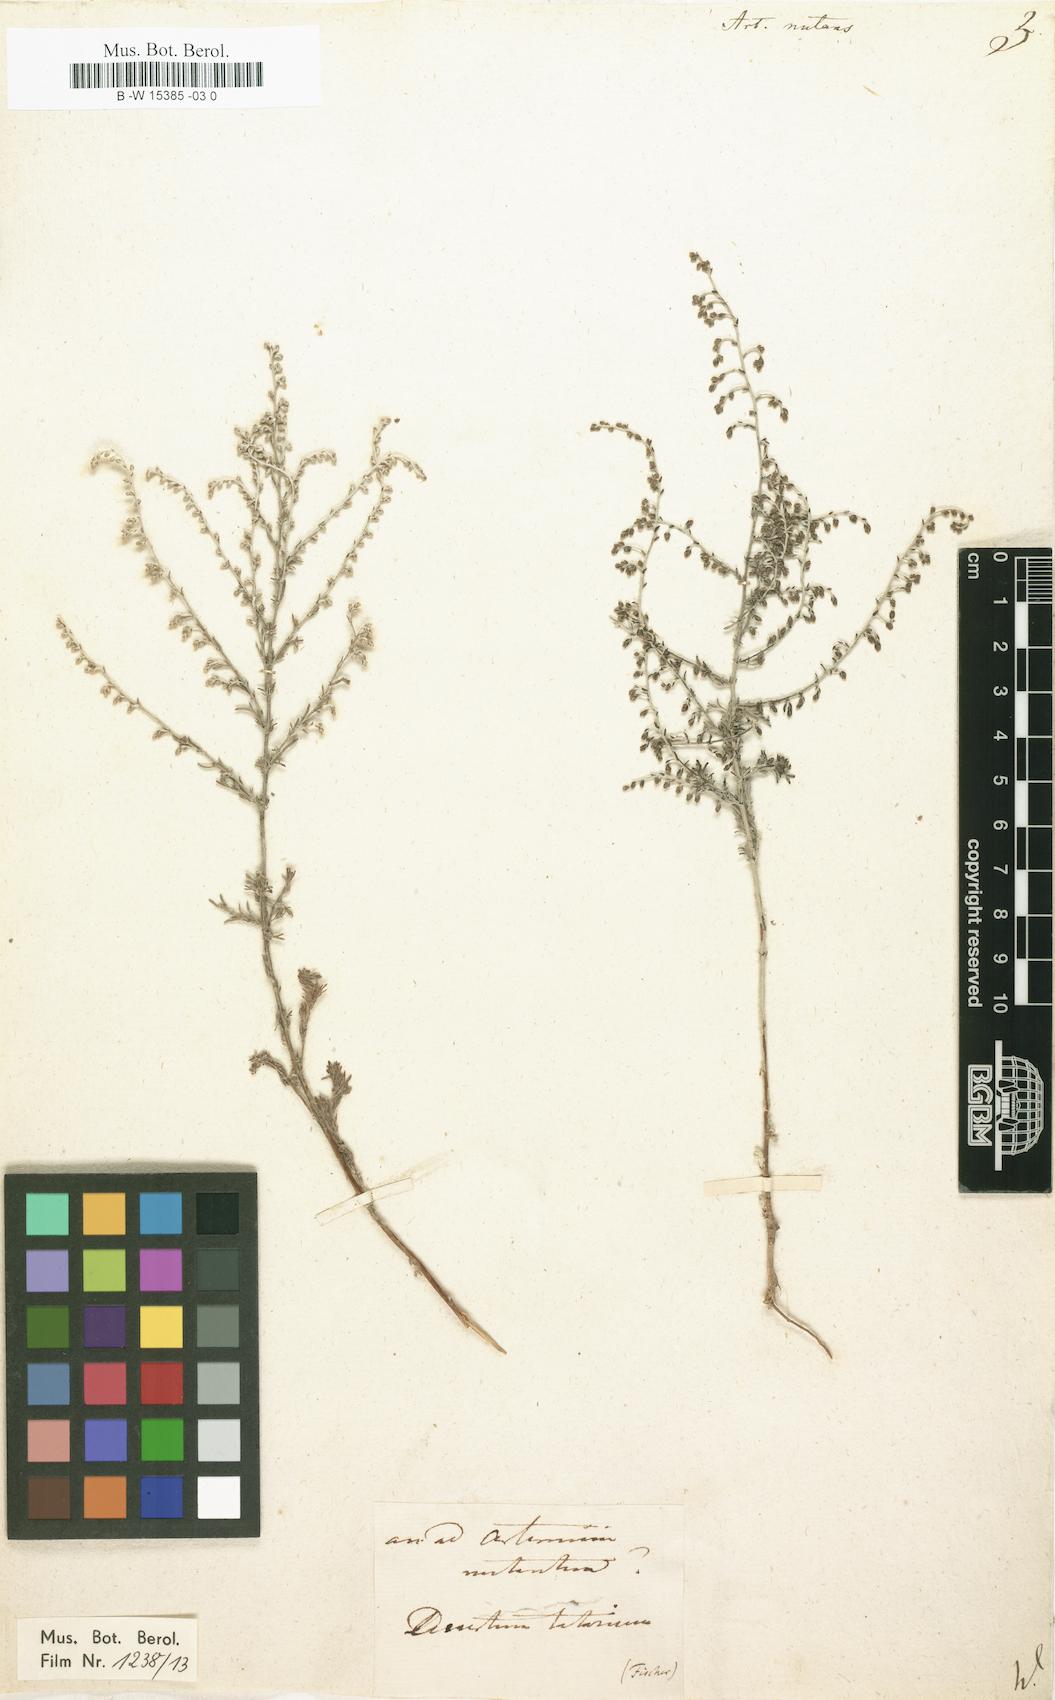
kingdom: Plantae
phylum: Tracheophyta
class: Magnoliopsida
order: Asterales
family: Asteraceae
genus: Artemisia
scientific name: Artemisia nutans
